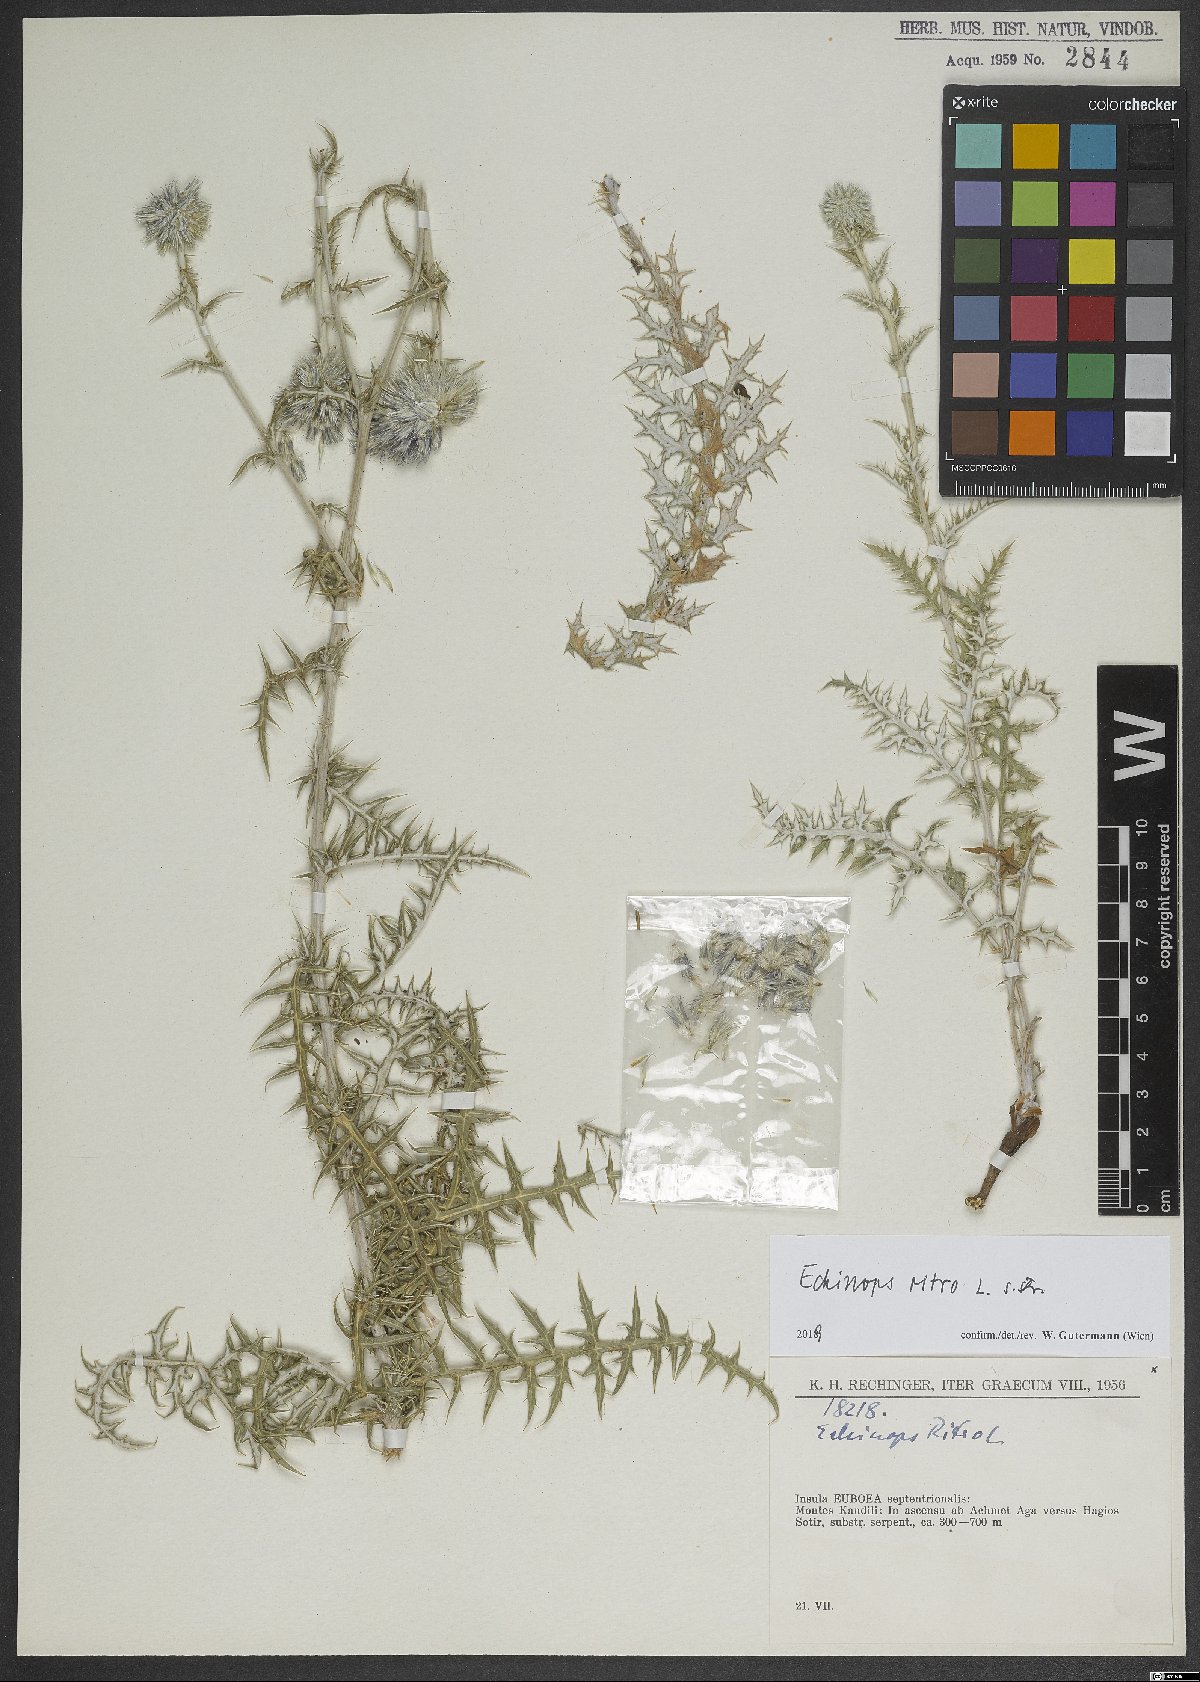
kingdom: Plantae
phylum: Tracheophyta
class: Magnoliopsida
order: Asterales
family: Asteraceae
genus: Echinops
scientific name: Echinops ritro
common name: Globe thistle
